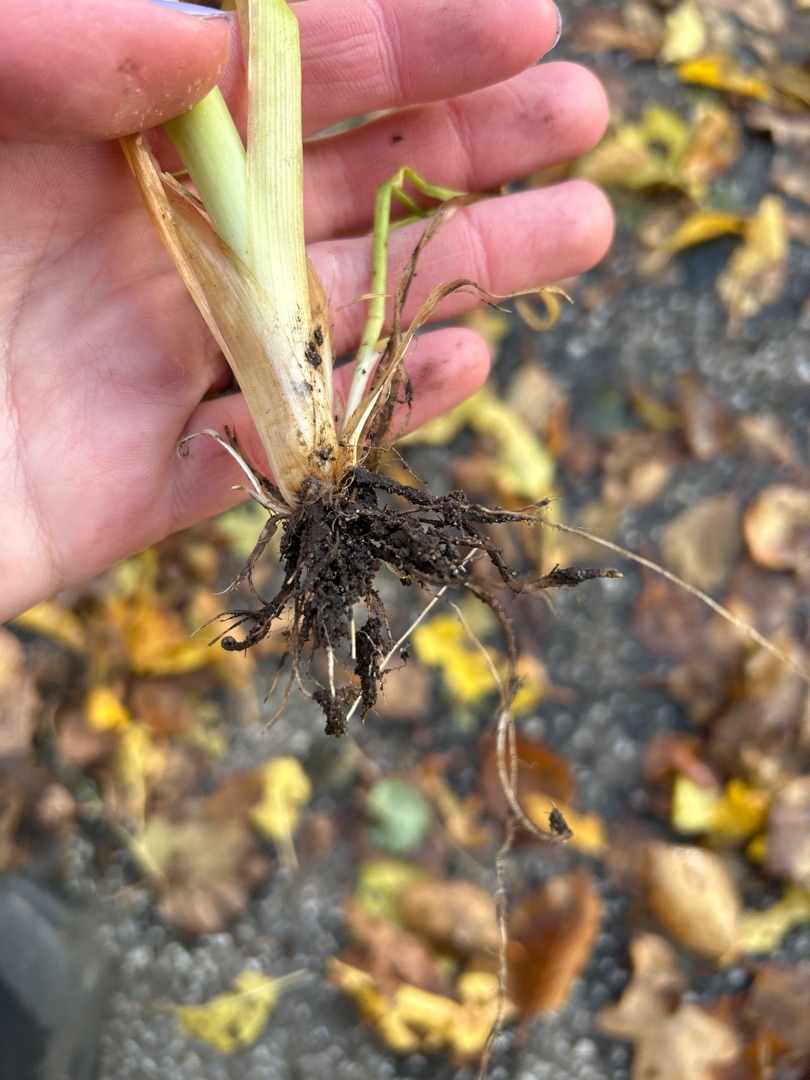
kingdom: Plantae
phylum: Tracheophyta
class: Liliopsida
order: Poales
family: Poaceae
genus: Dactylis
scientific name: Dactylis glomerata
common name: Almindelig hundegræs
